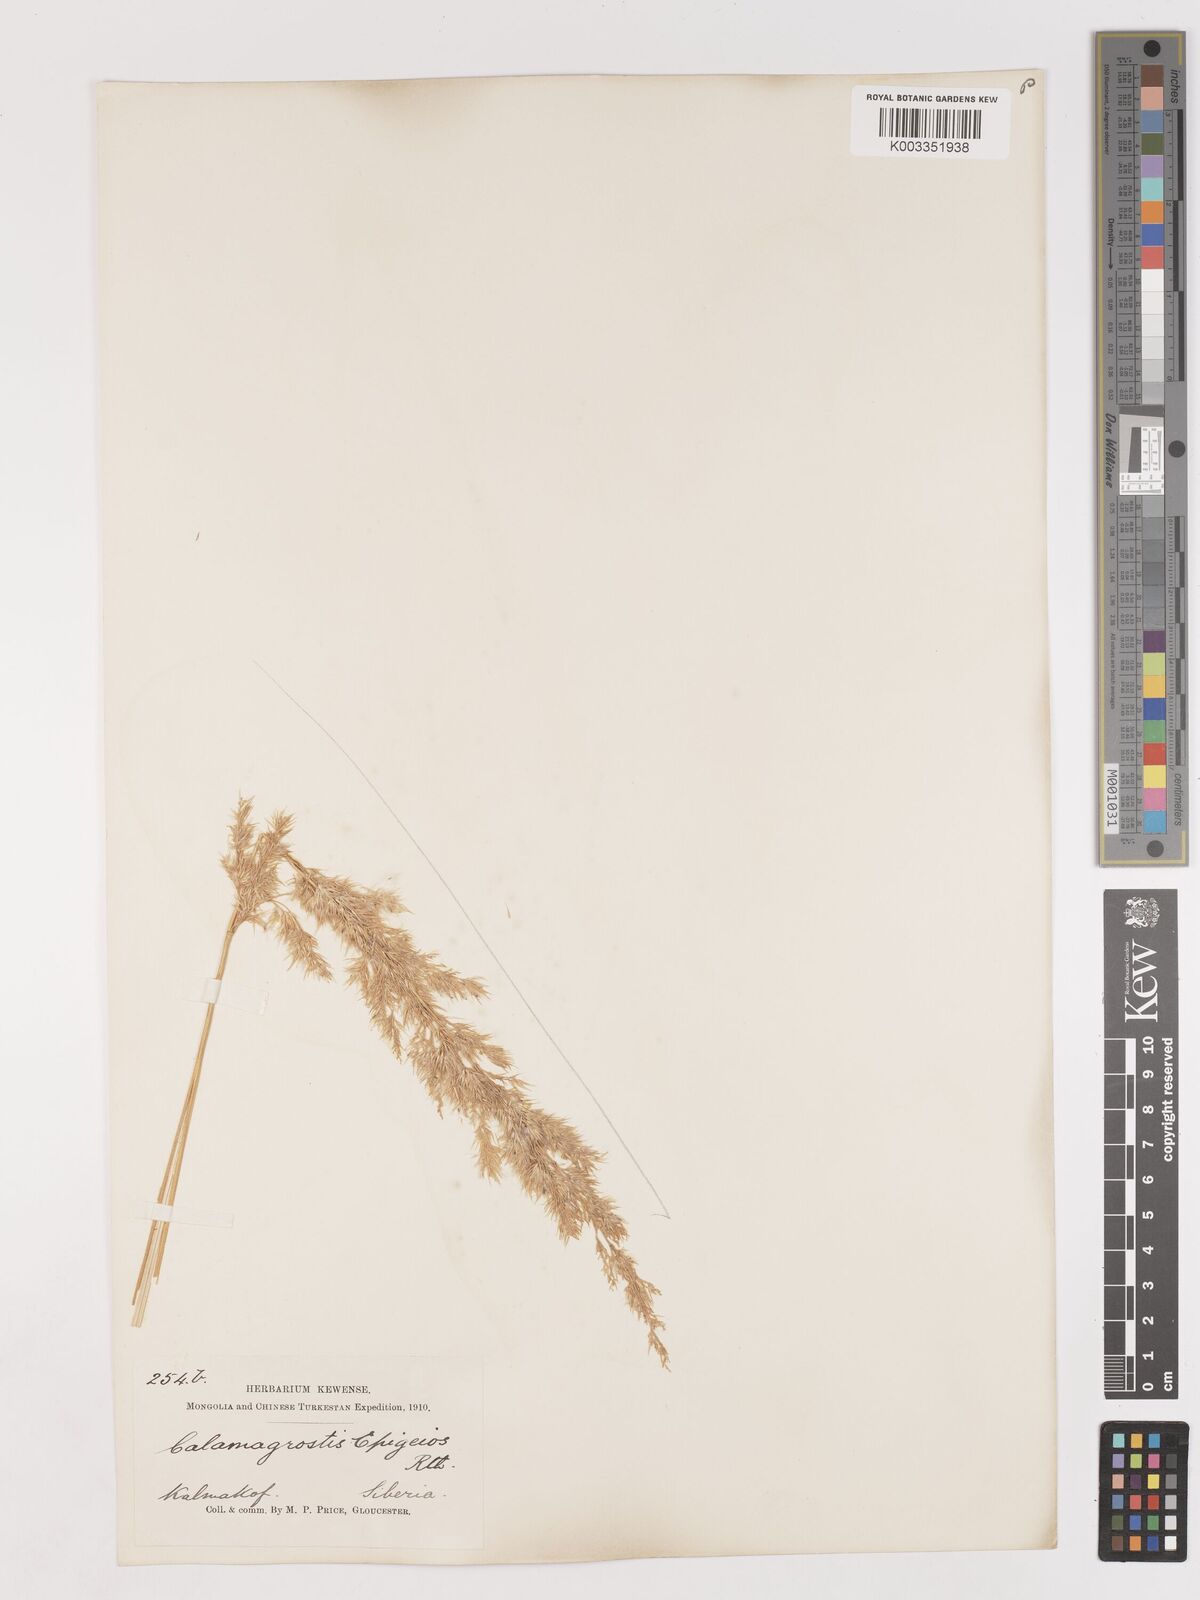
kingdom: Plantae
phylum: Tracheophyta
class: Liliopsida
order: Poales
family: Poaceae
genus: Calamagrostis
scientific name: Calamagrostis epigejos
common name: Wood small-reed
